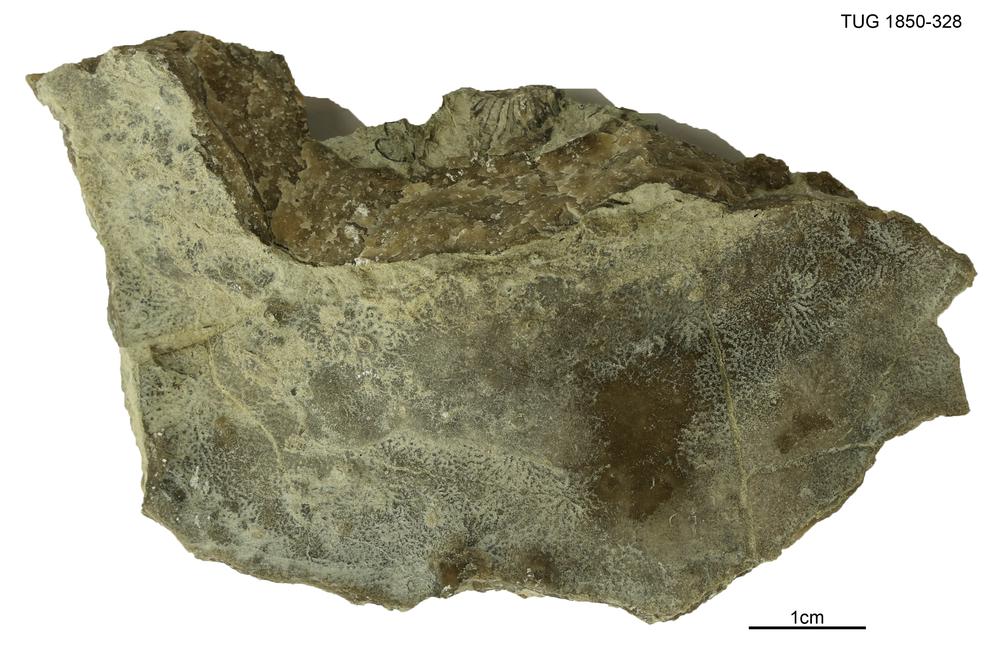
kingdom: Animalia
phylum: Porifera
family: Pseudolabechiidae
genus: Pseudolabechia
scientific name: Pseudolabechia
